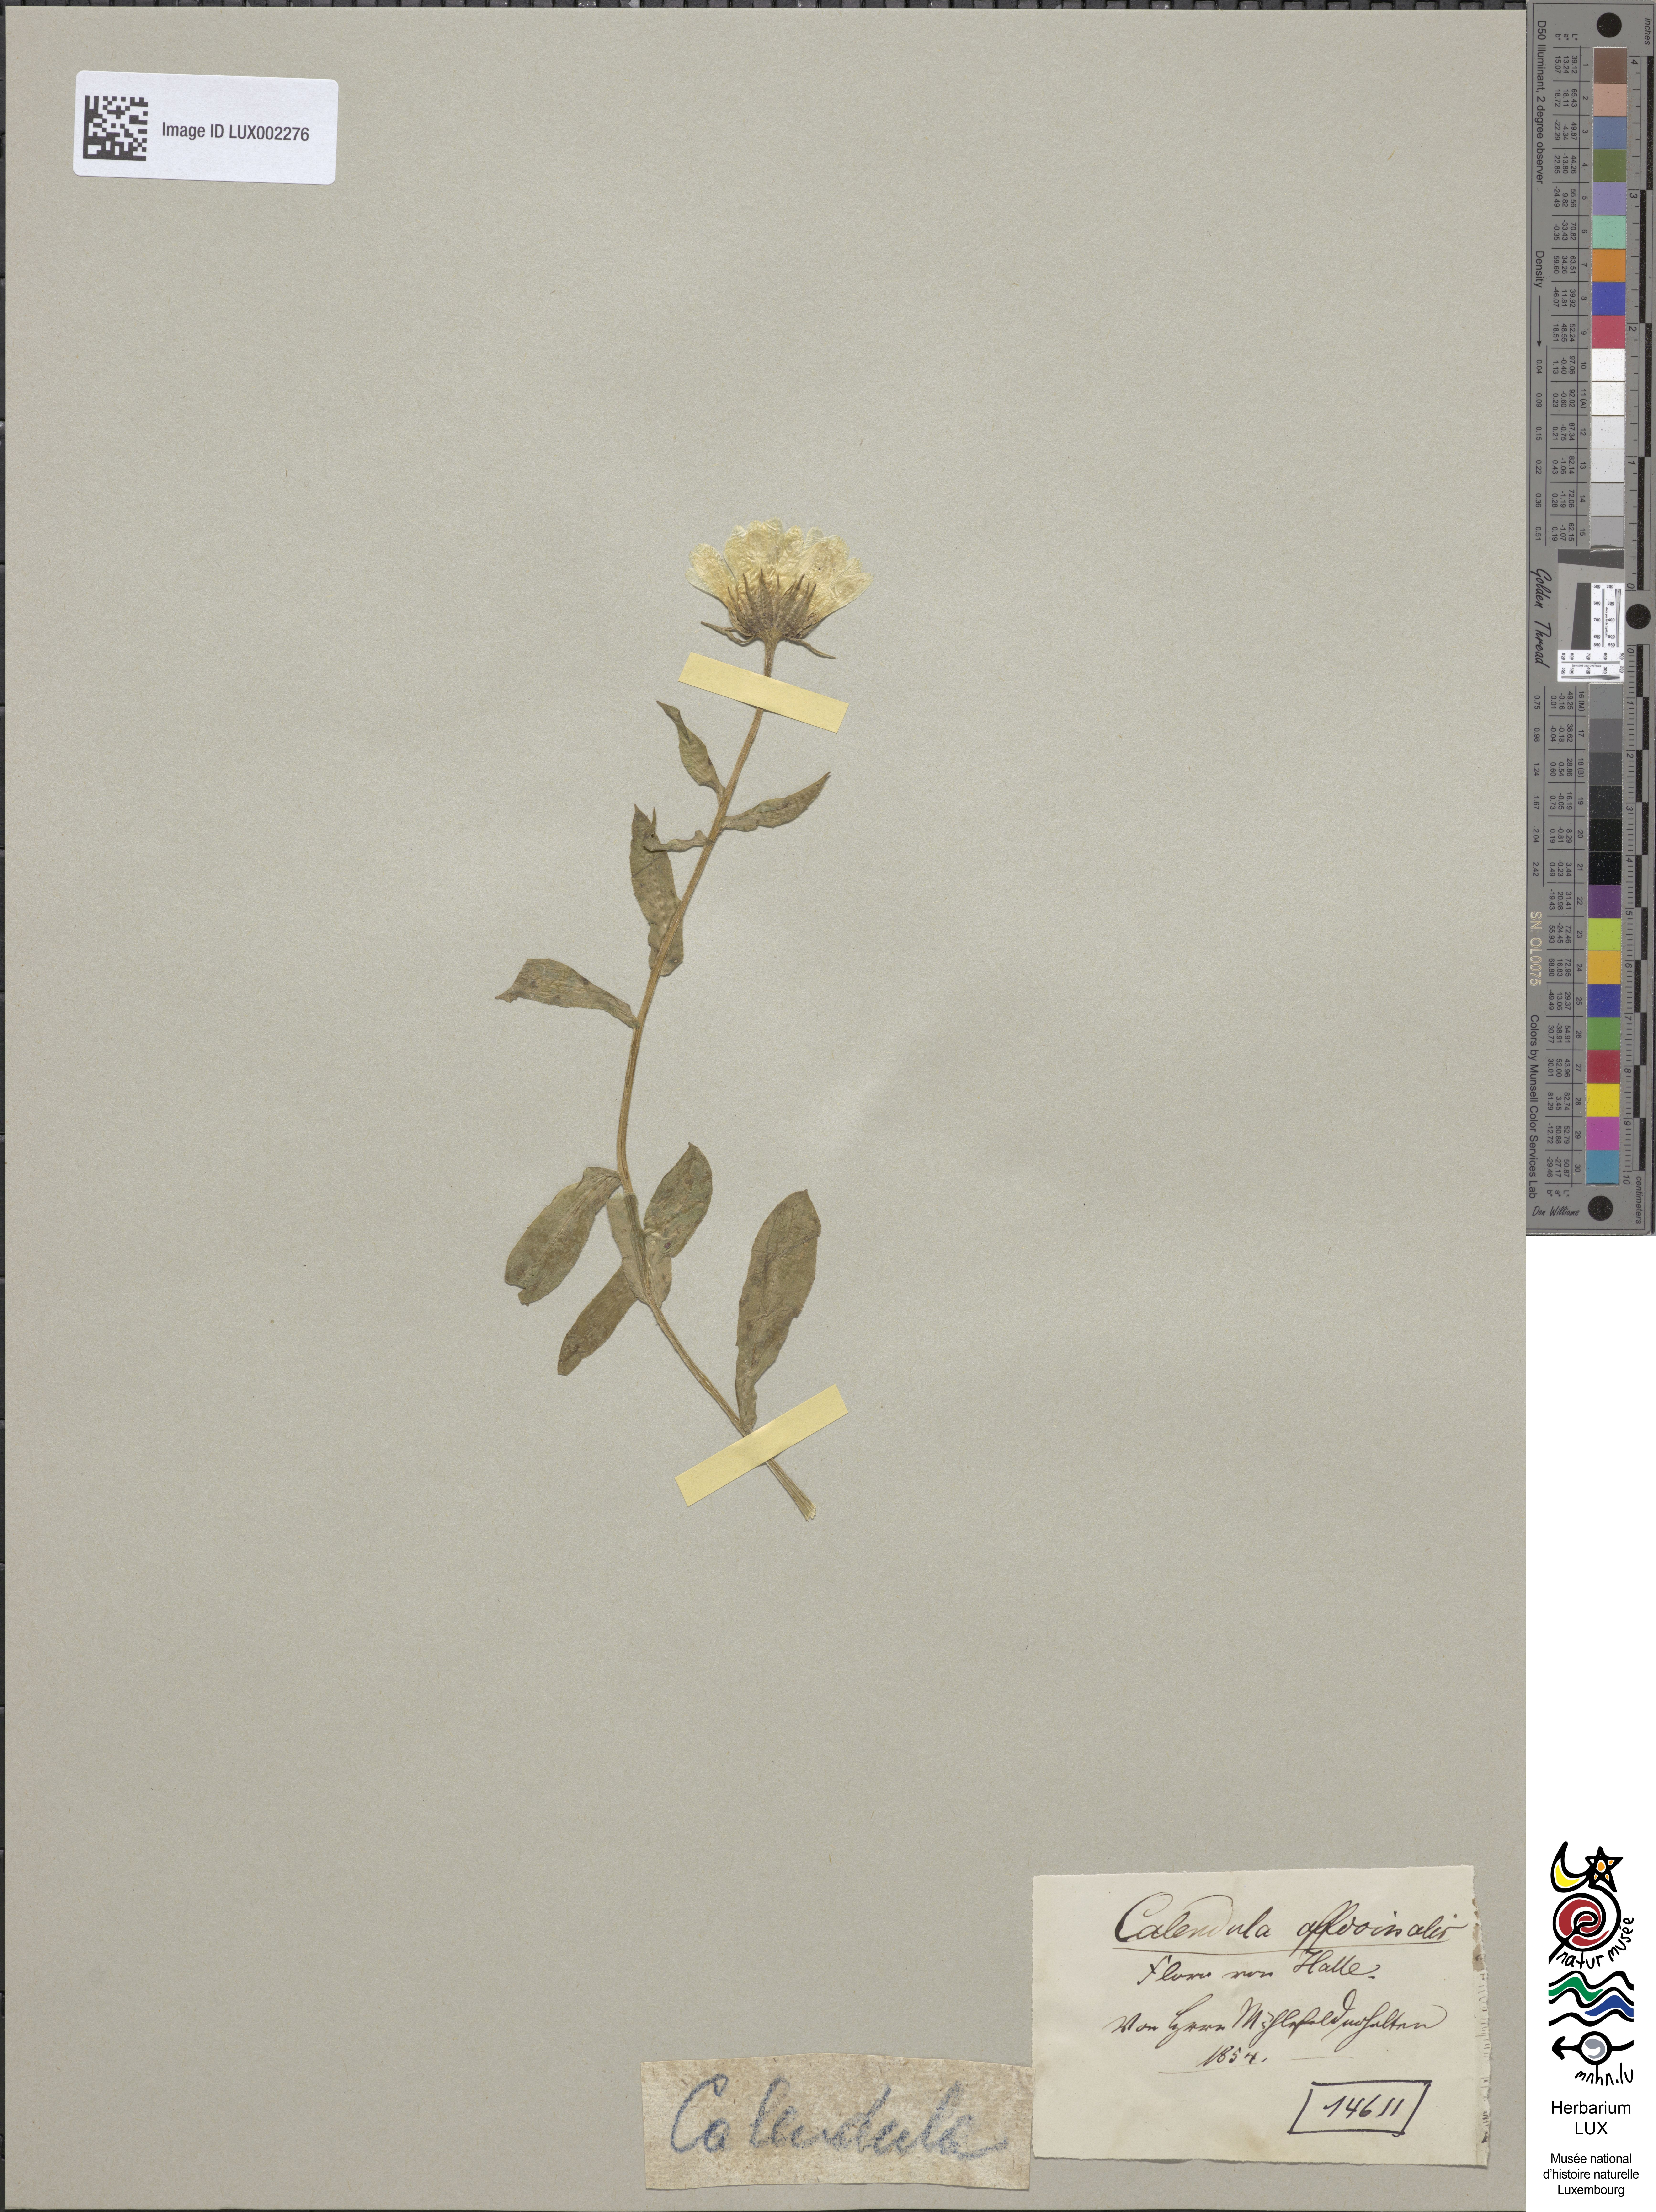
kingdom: Plantae
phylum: Tracheophyta
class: Magnoliopsida
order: Asterales
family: Asteraceae
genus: Calendula
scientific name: Calendula officinalis
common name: Pot marigold
